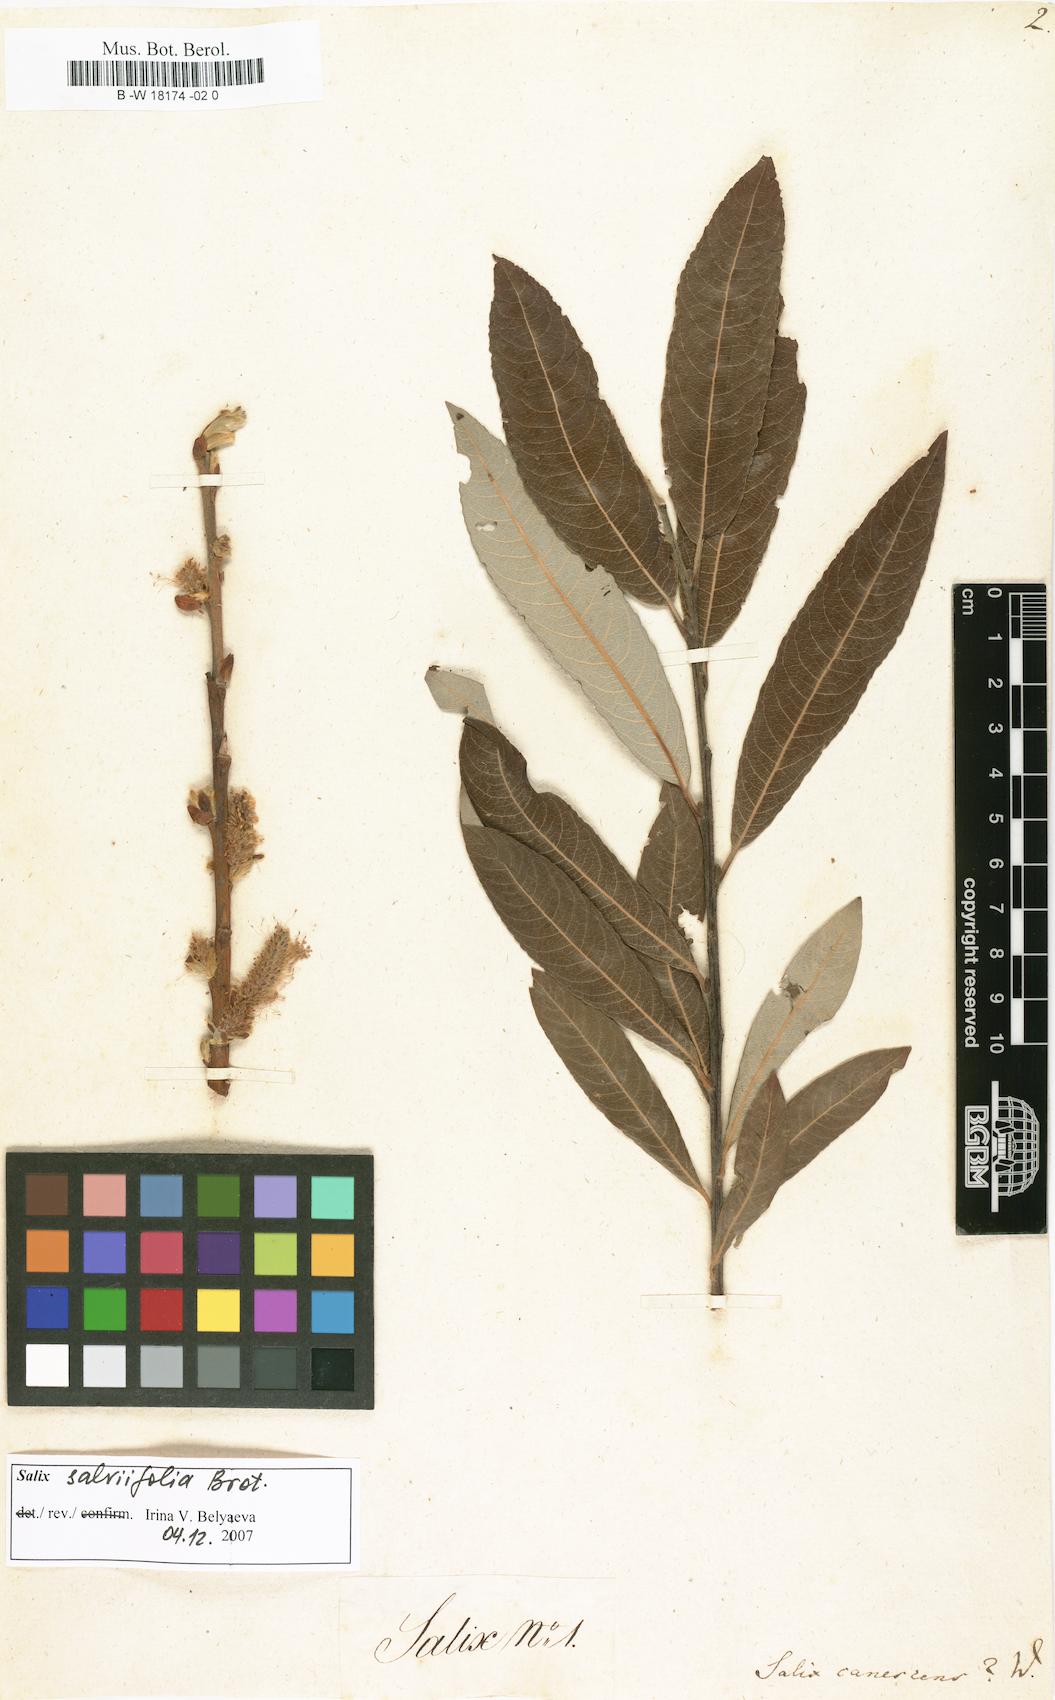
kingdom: Plantae
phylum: Tracheophyta
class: Magnoliopsida
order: Malpighiales
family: Salicaceae
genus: Salix
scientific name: Salix canescens
